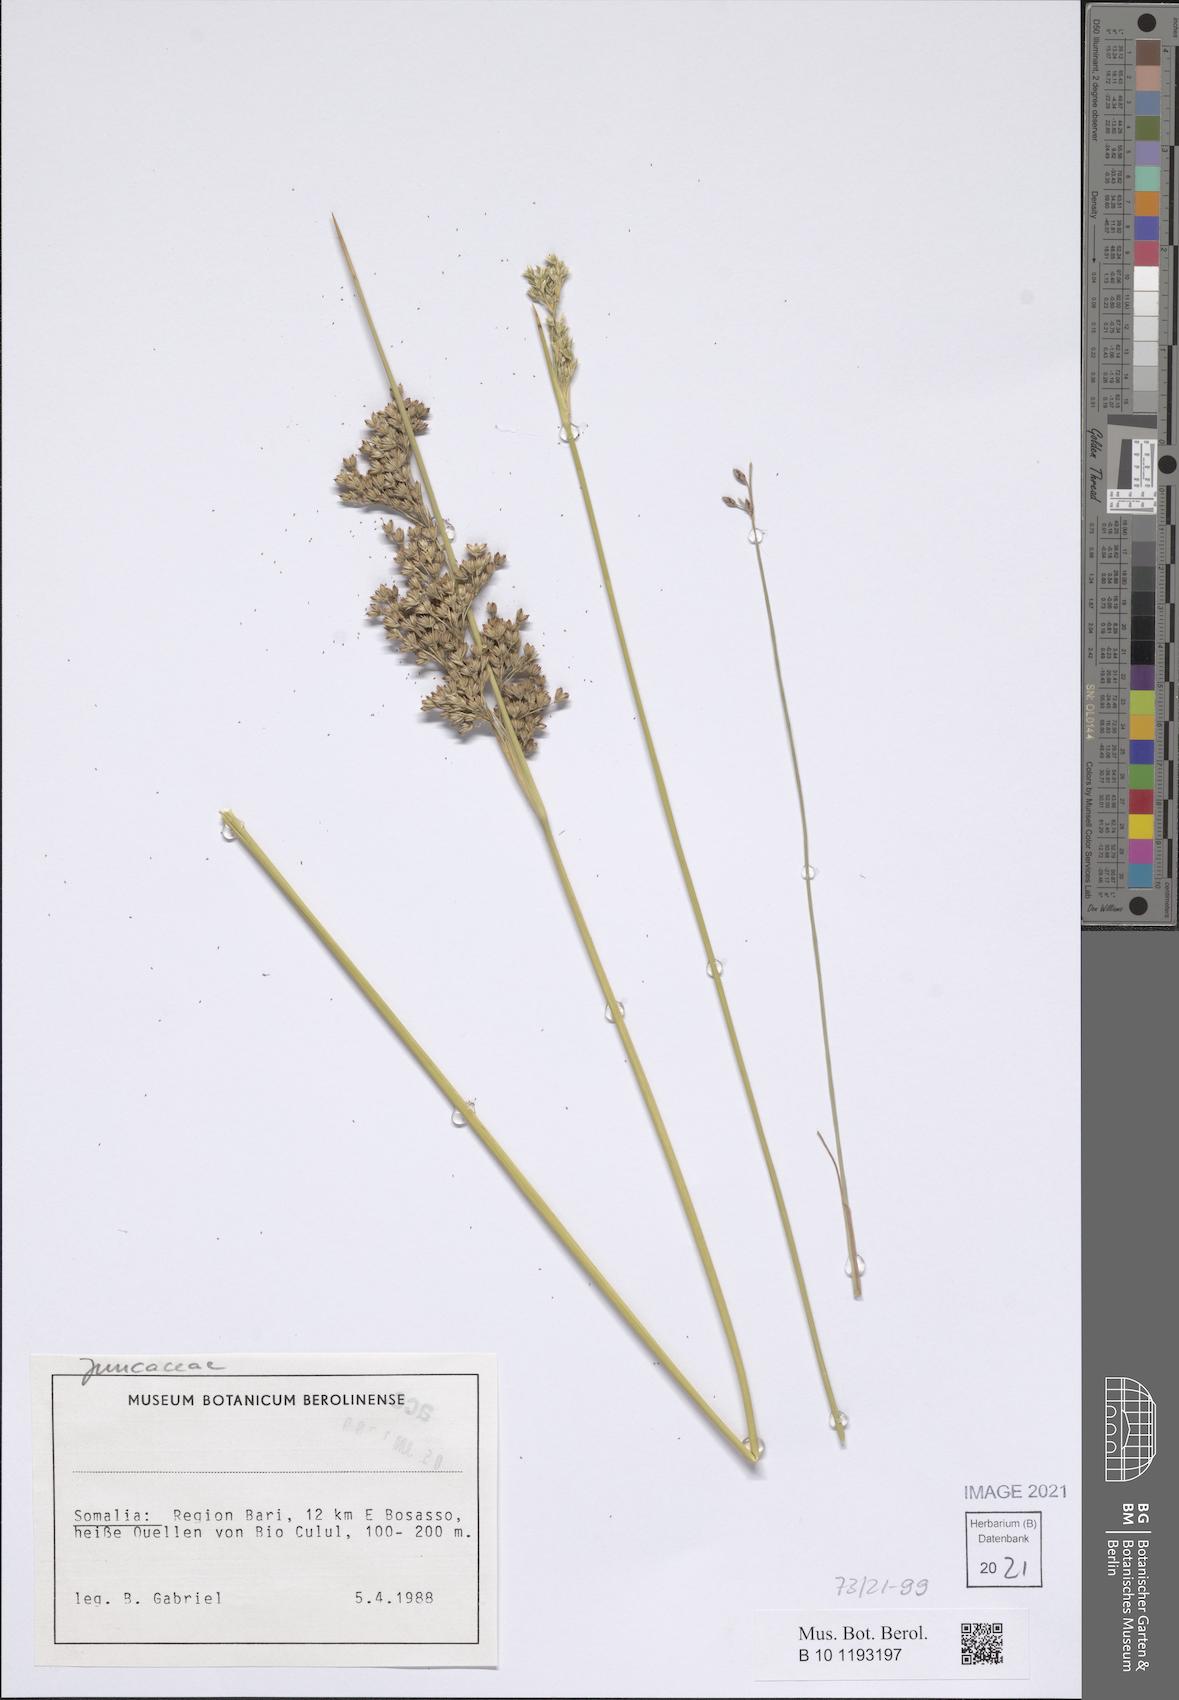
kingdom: Plantae
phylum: Tracheophyta
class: Liliopsida
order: Poales
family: Juncaceae
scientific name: Juncaceae
